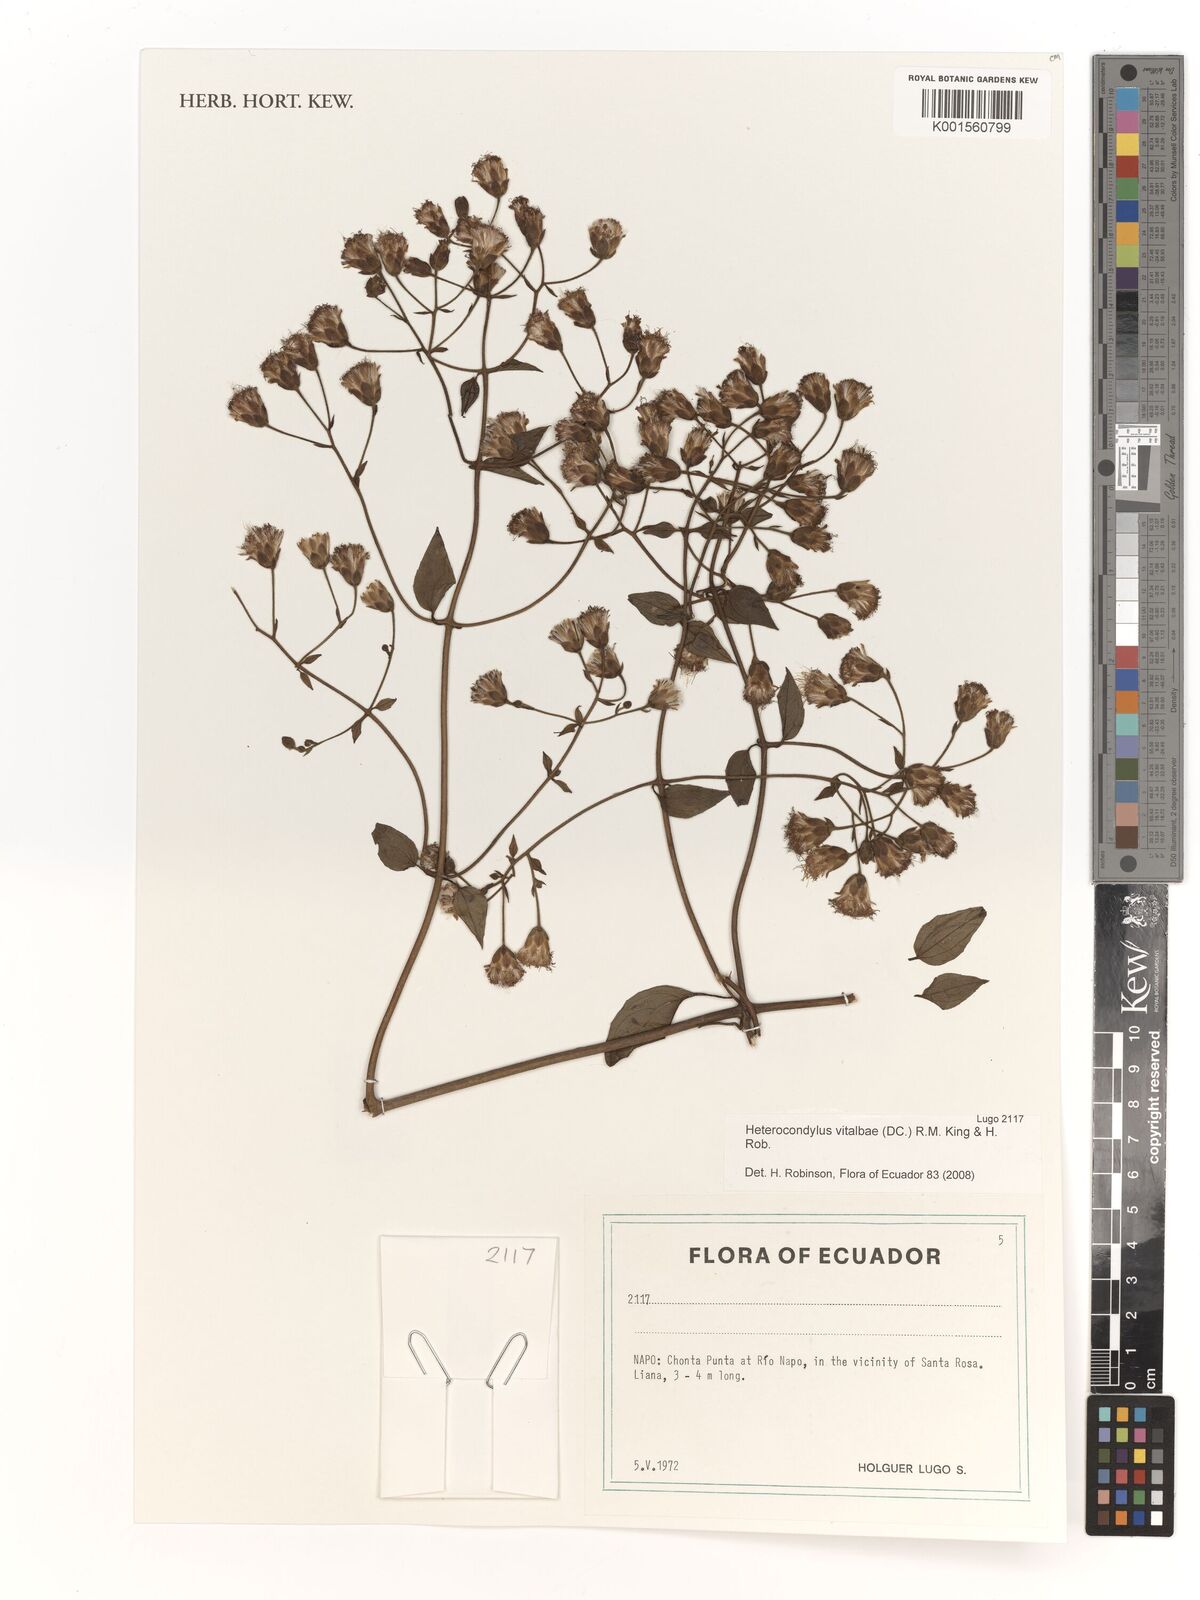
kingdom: Plantae
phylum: Tracheophyta
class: Magnoliopsida
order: Asterales
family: Asteraceae
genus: Heterocondylus
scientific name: Heterocondylus vitalbae
